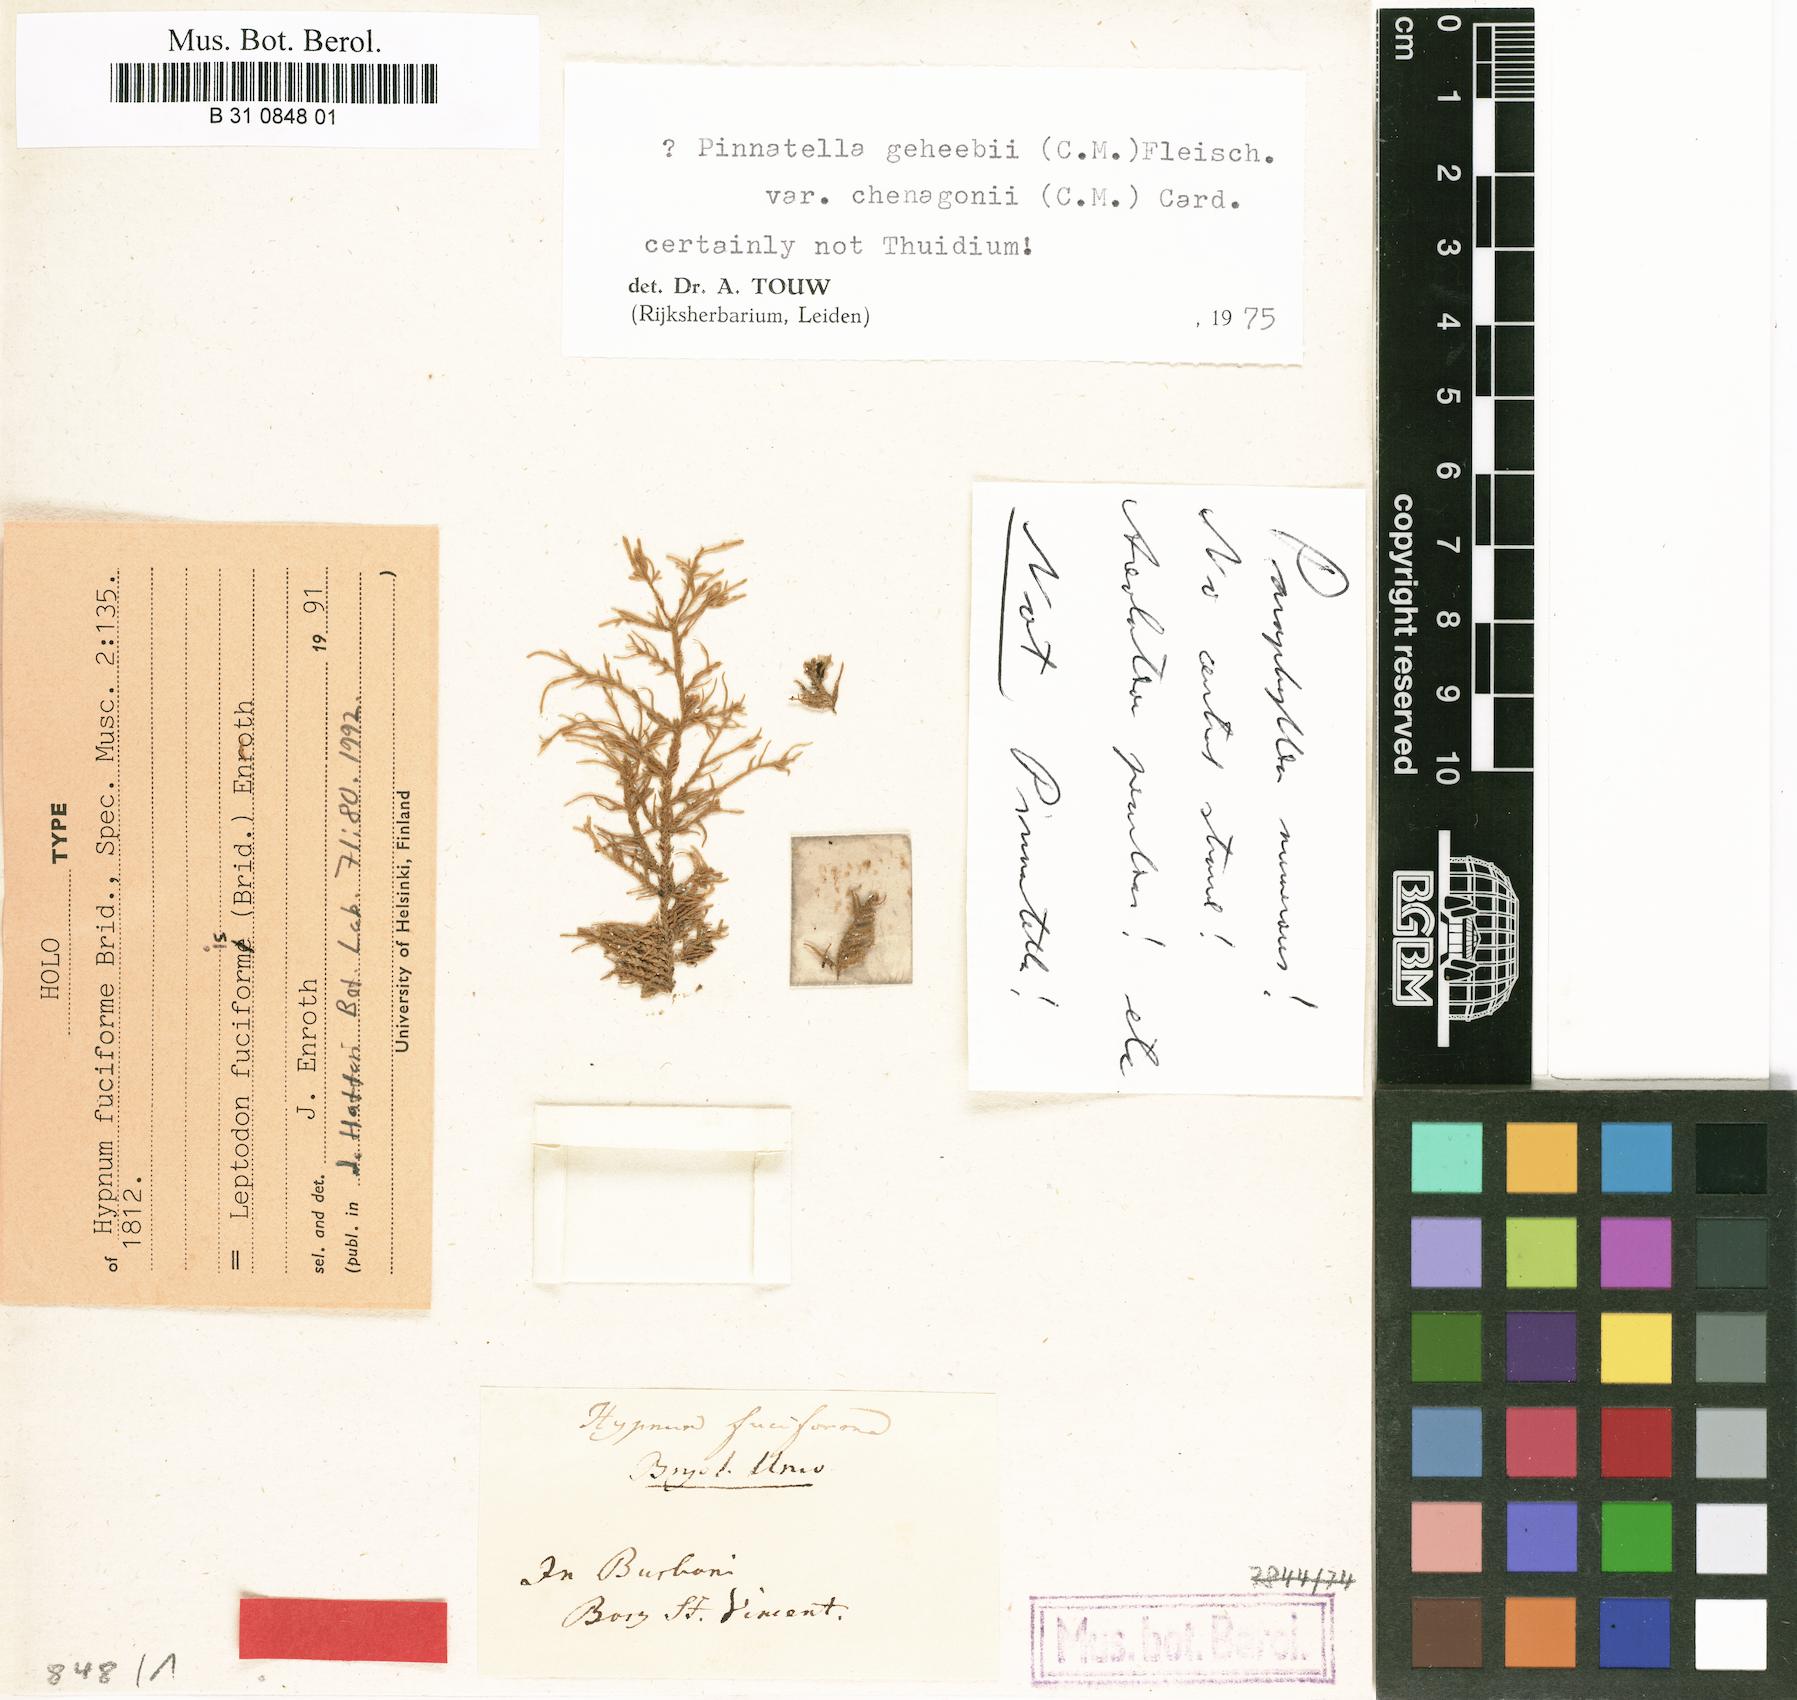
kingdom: Plantae
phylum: Bryophyta
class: Bryopsida
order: Hypnales
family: Neckeraceae
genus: Leptodon
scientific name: Leptodon fuciformis
